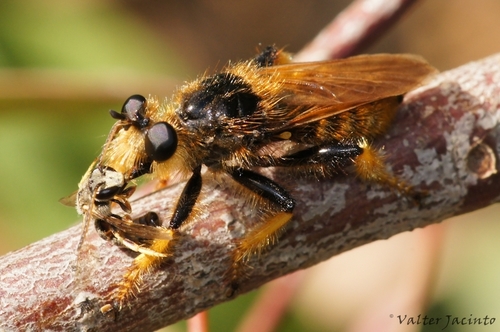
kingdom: Animalia
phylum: Arthropoda
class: Insecta
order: Diptera
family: Asilidae
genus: Pogonosoma
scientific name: Pogonosoma maroccanum
